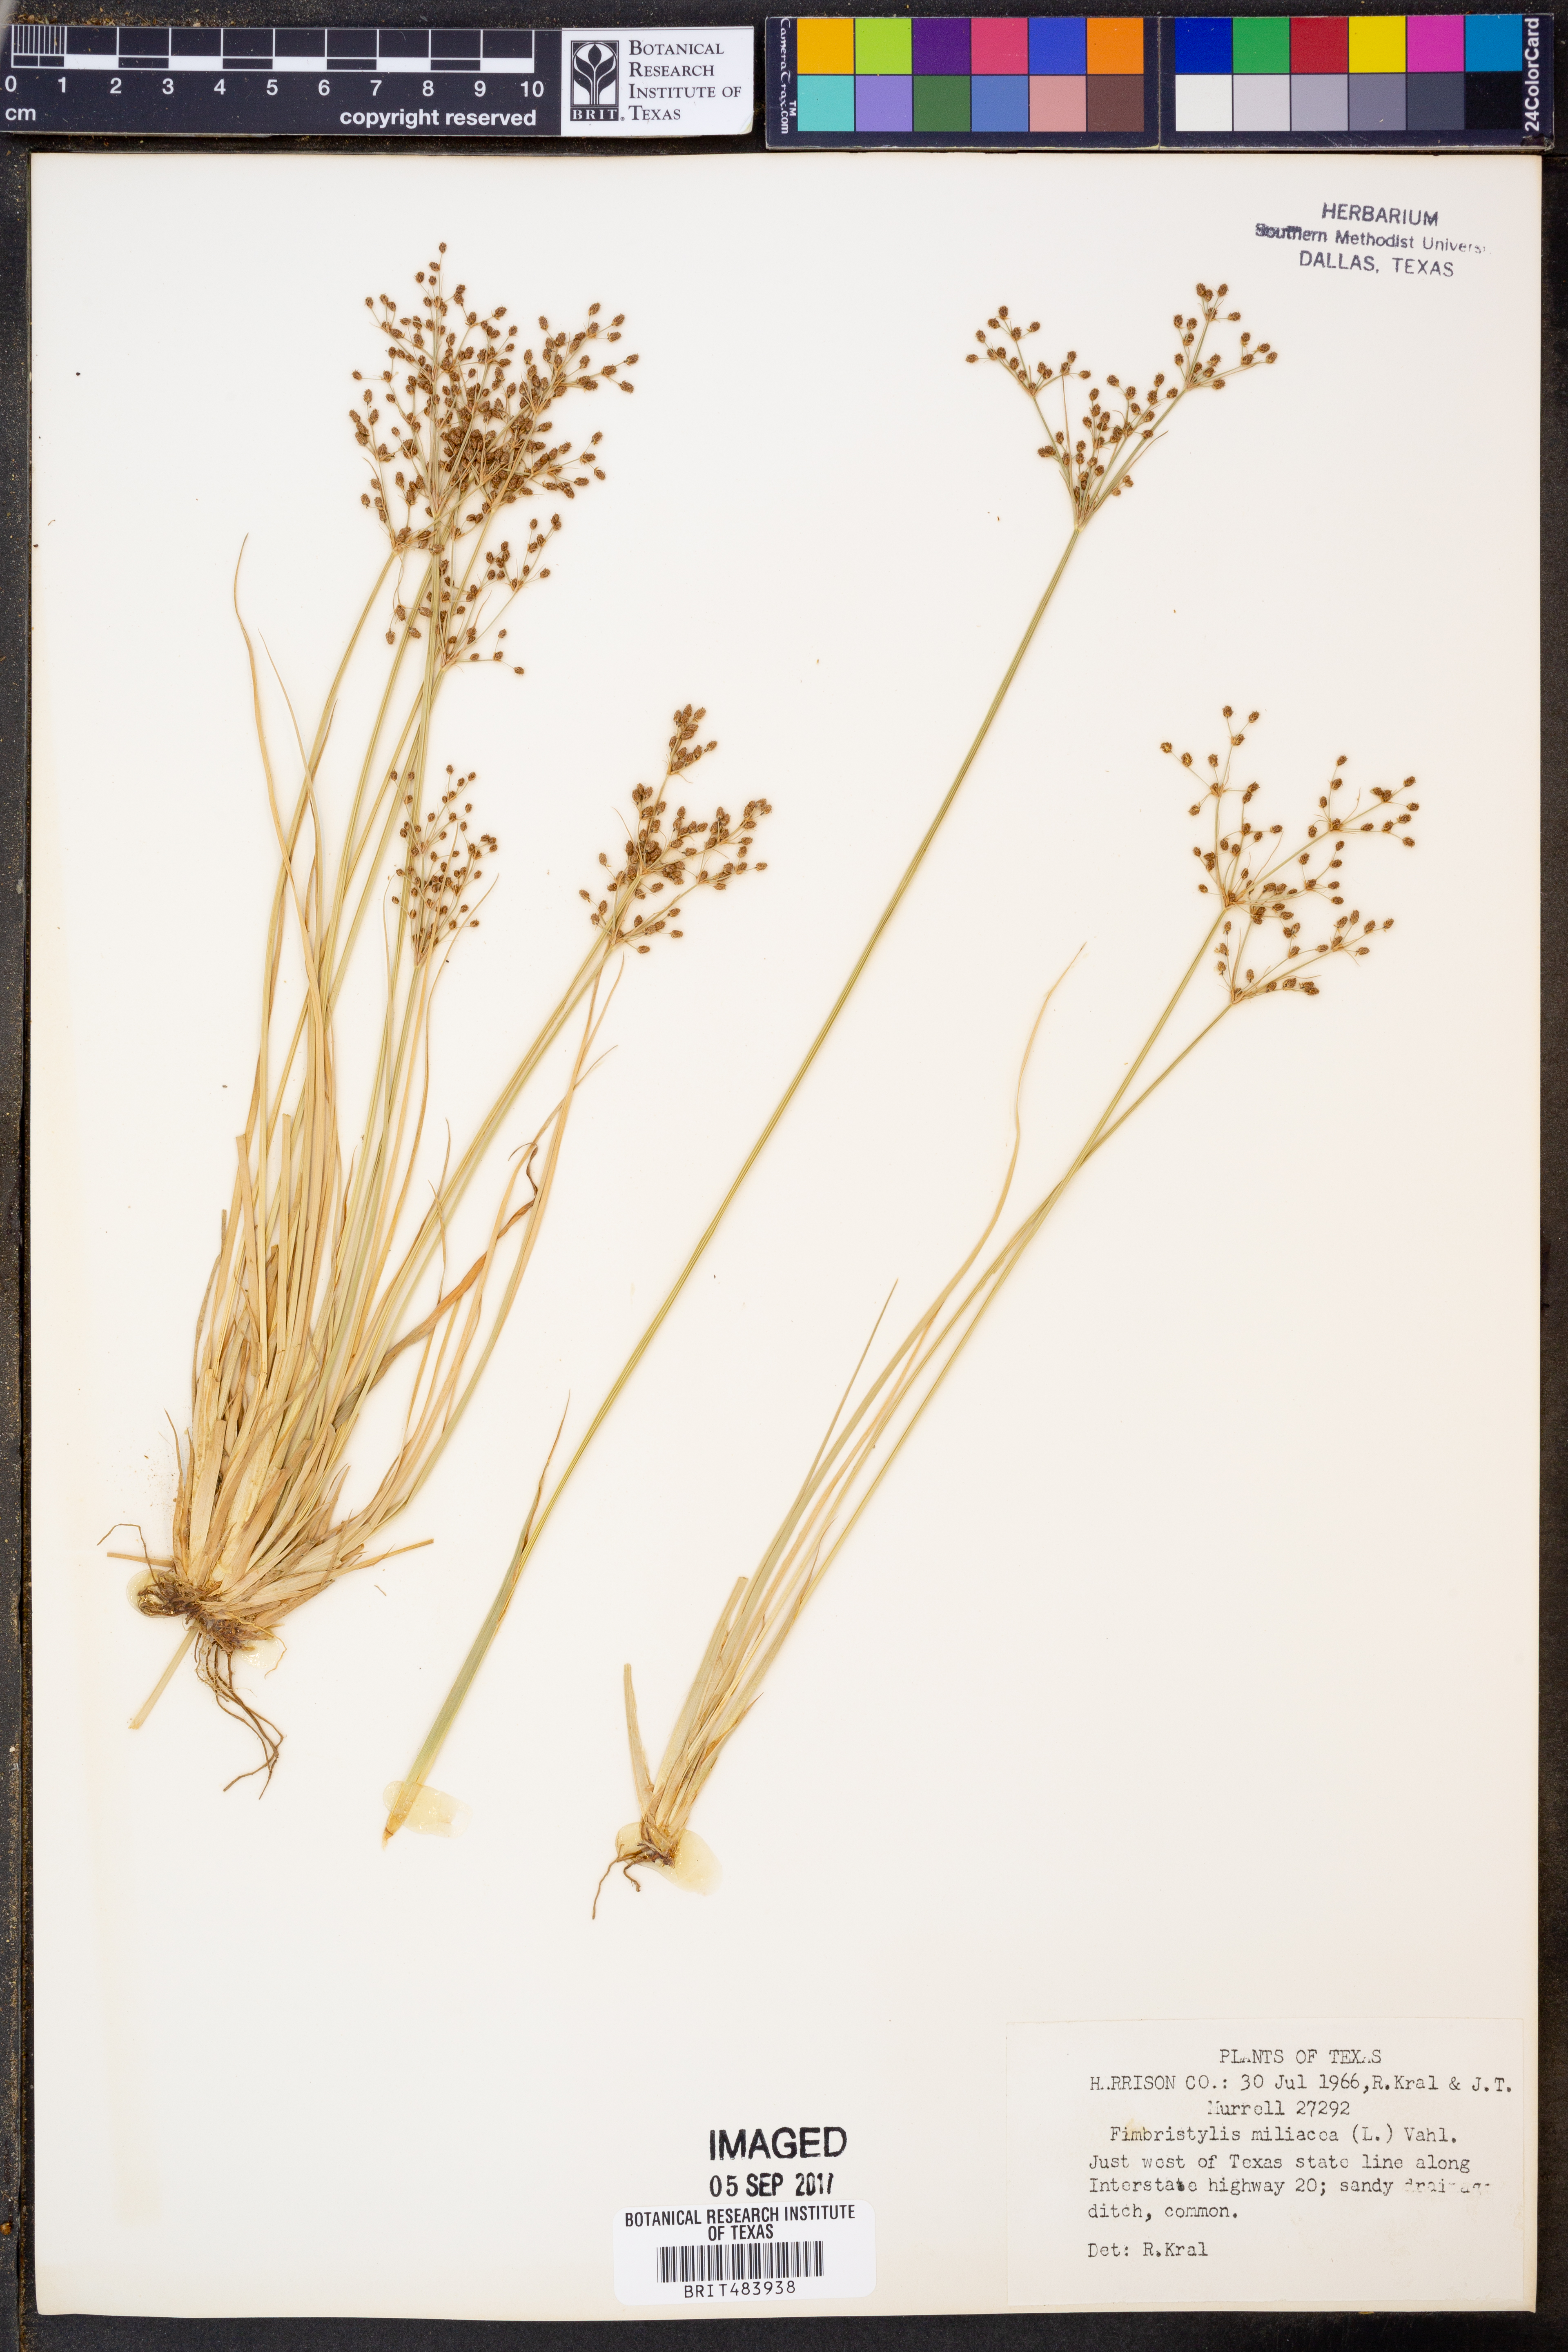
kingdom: Plantae
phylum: Tracheophyta
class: Liliopsida
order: Poales
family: Cyperaceae
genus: Fimbristylis
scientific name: Fimbristylis quinquangularis
